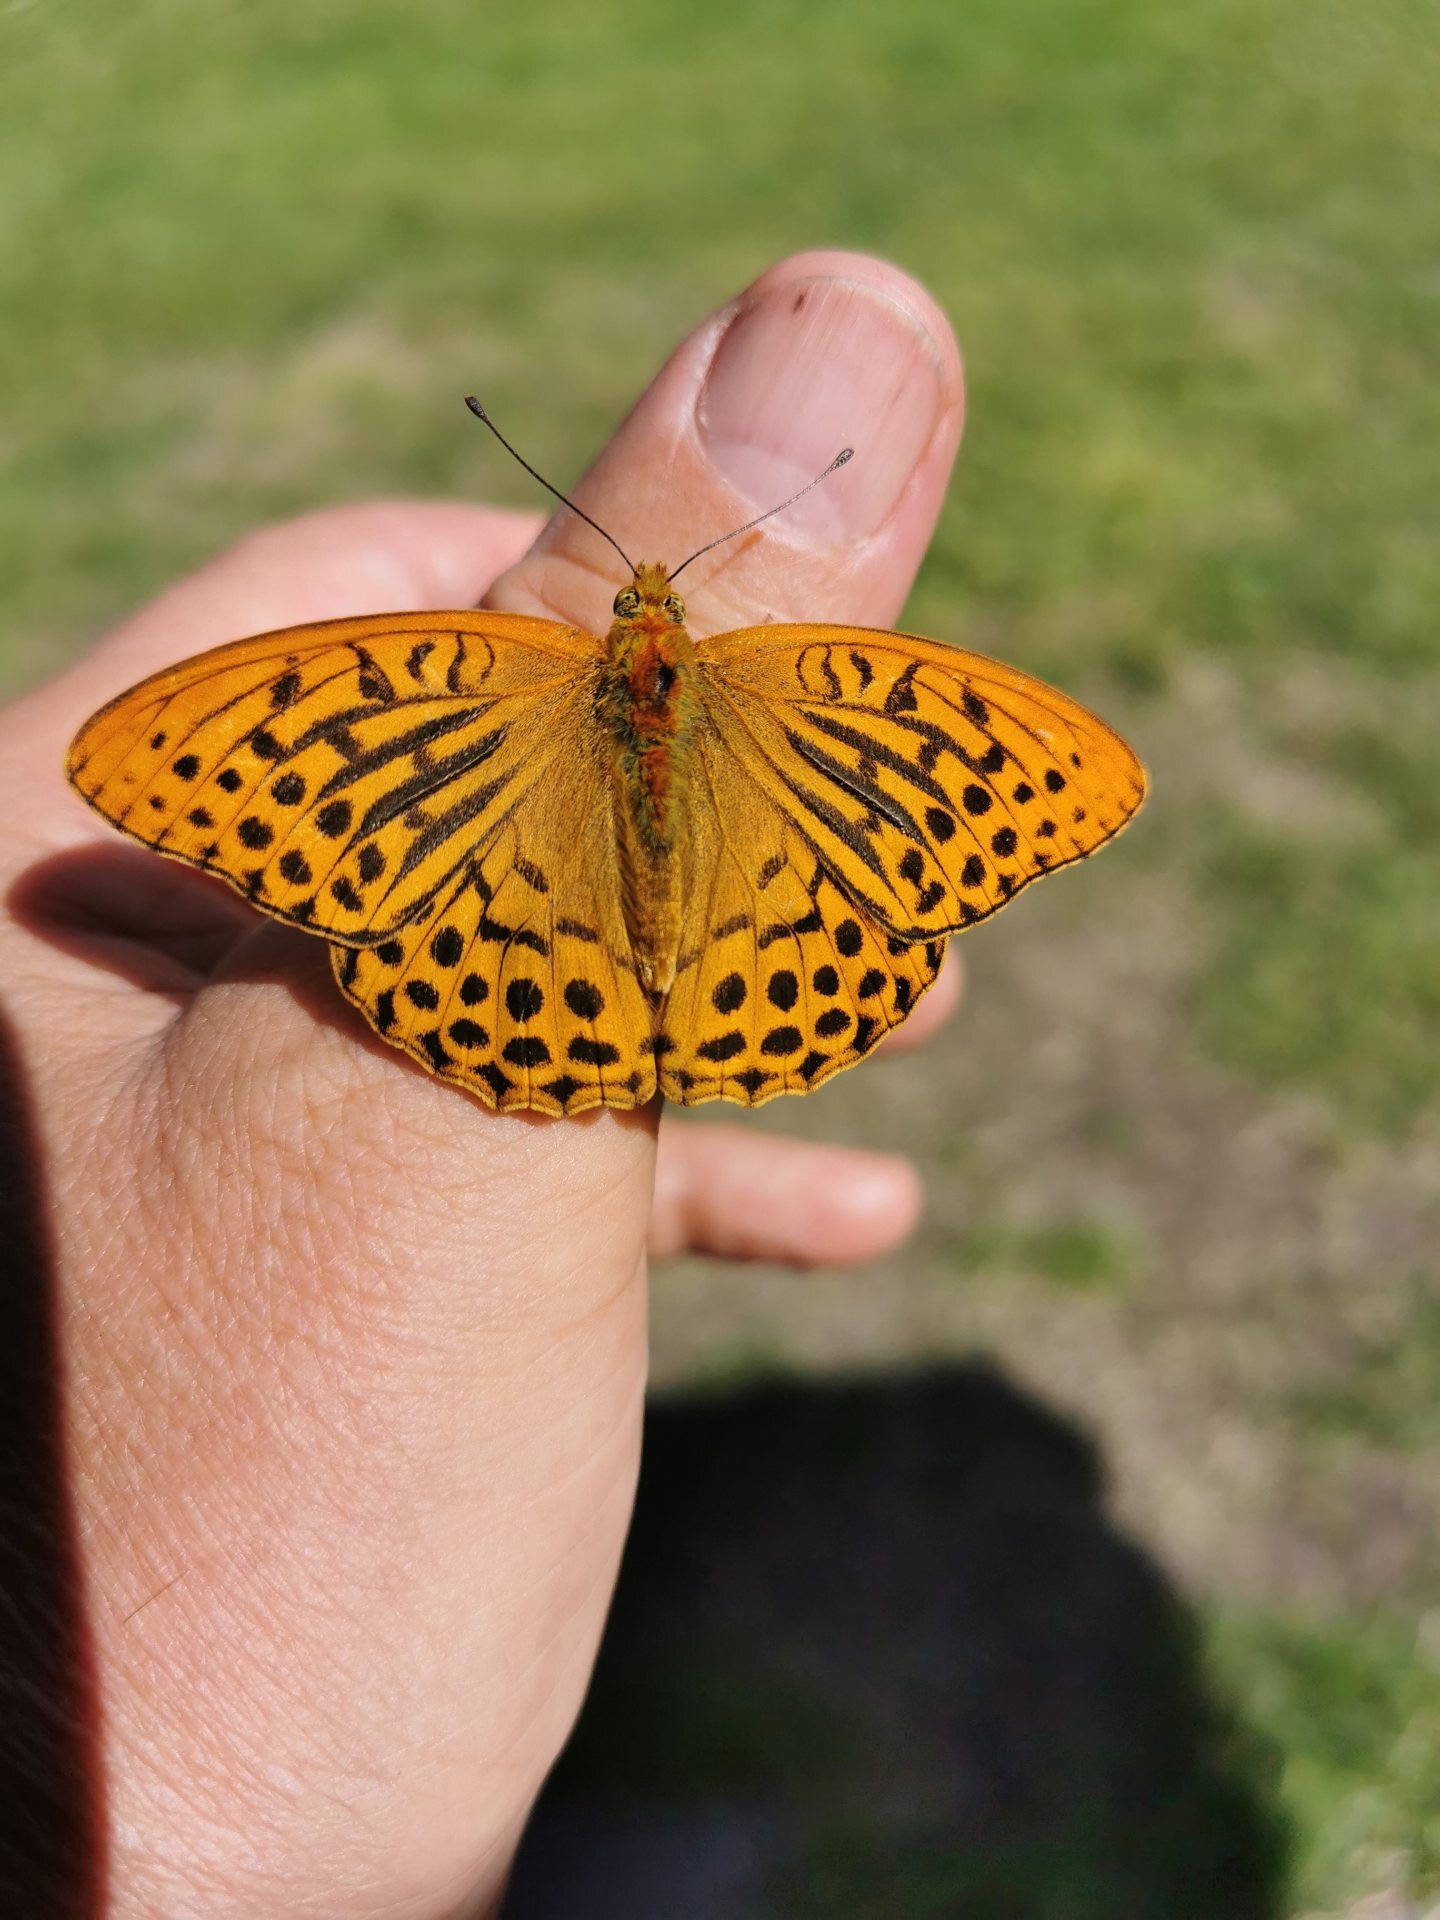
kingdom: Animalia
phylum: Arthropoda
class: Insecta
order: Lepidoptera
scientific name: Lepidoptera
